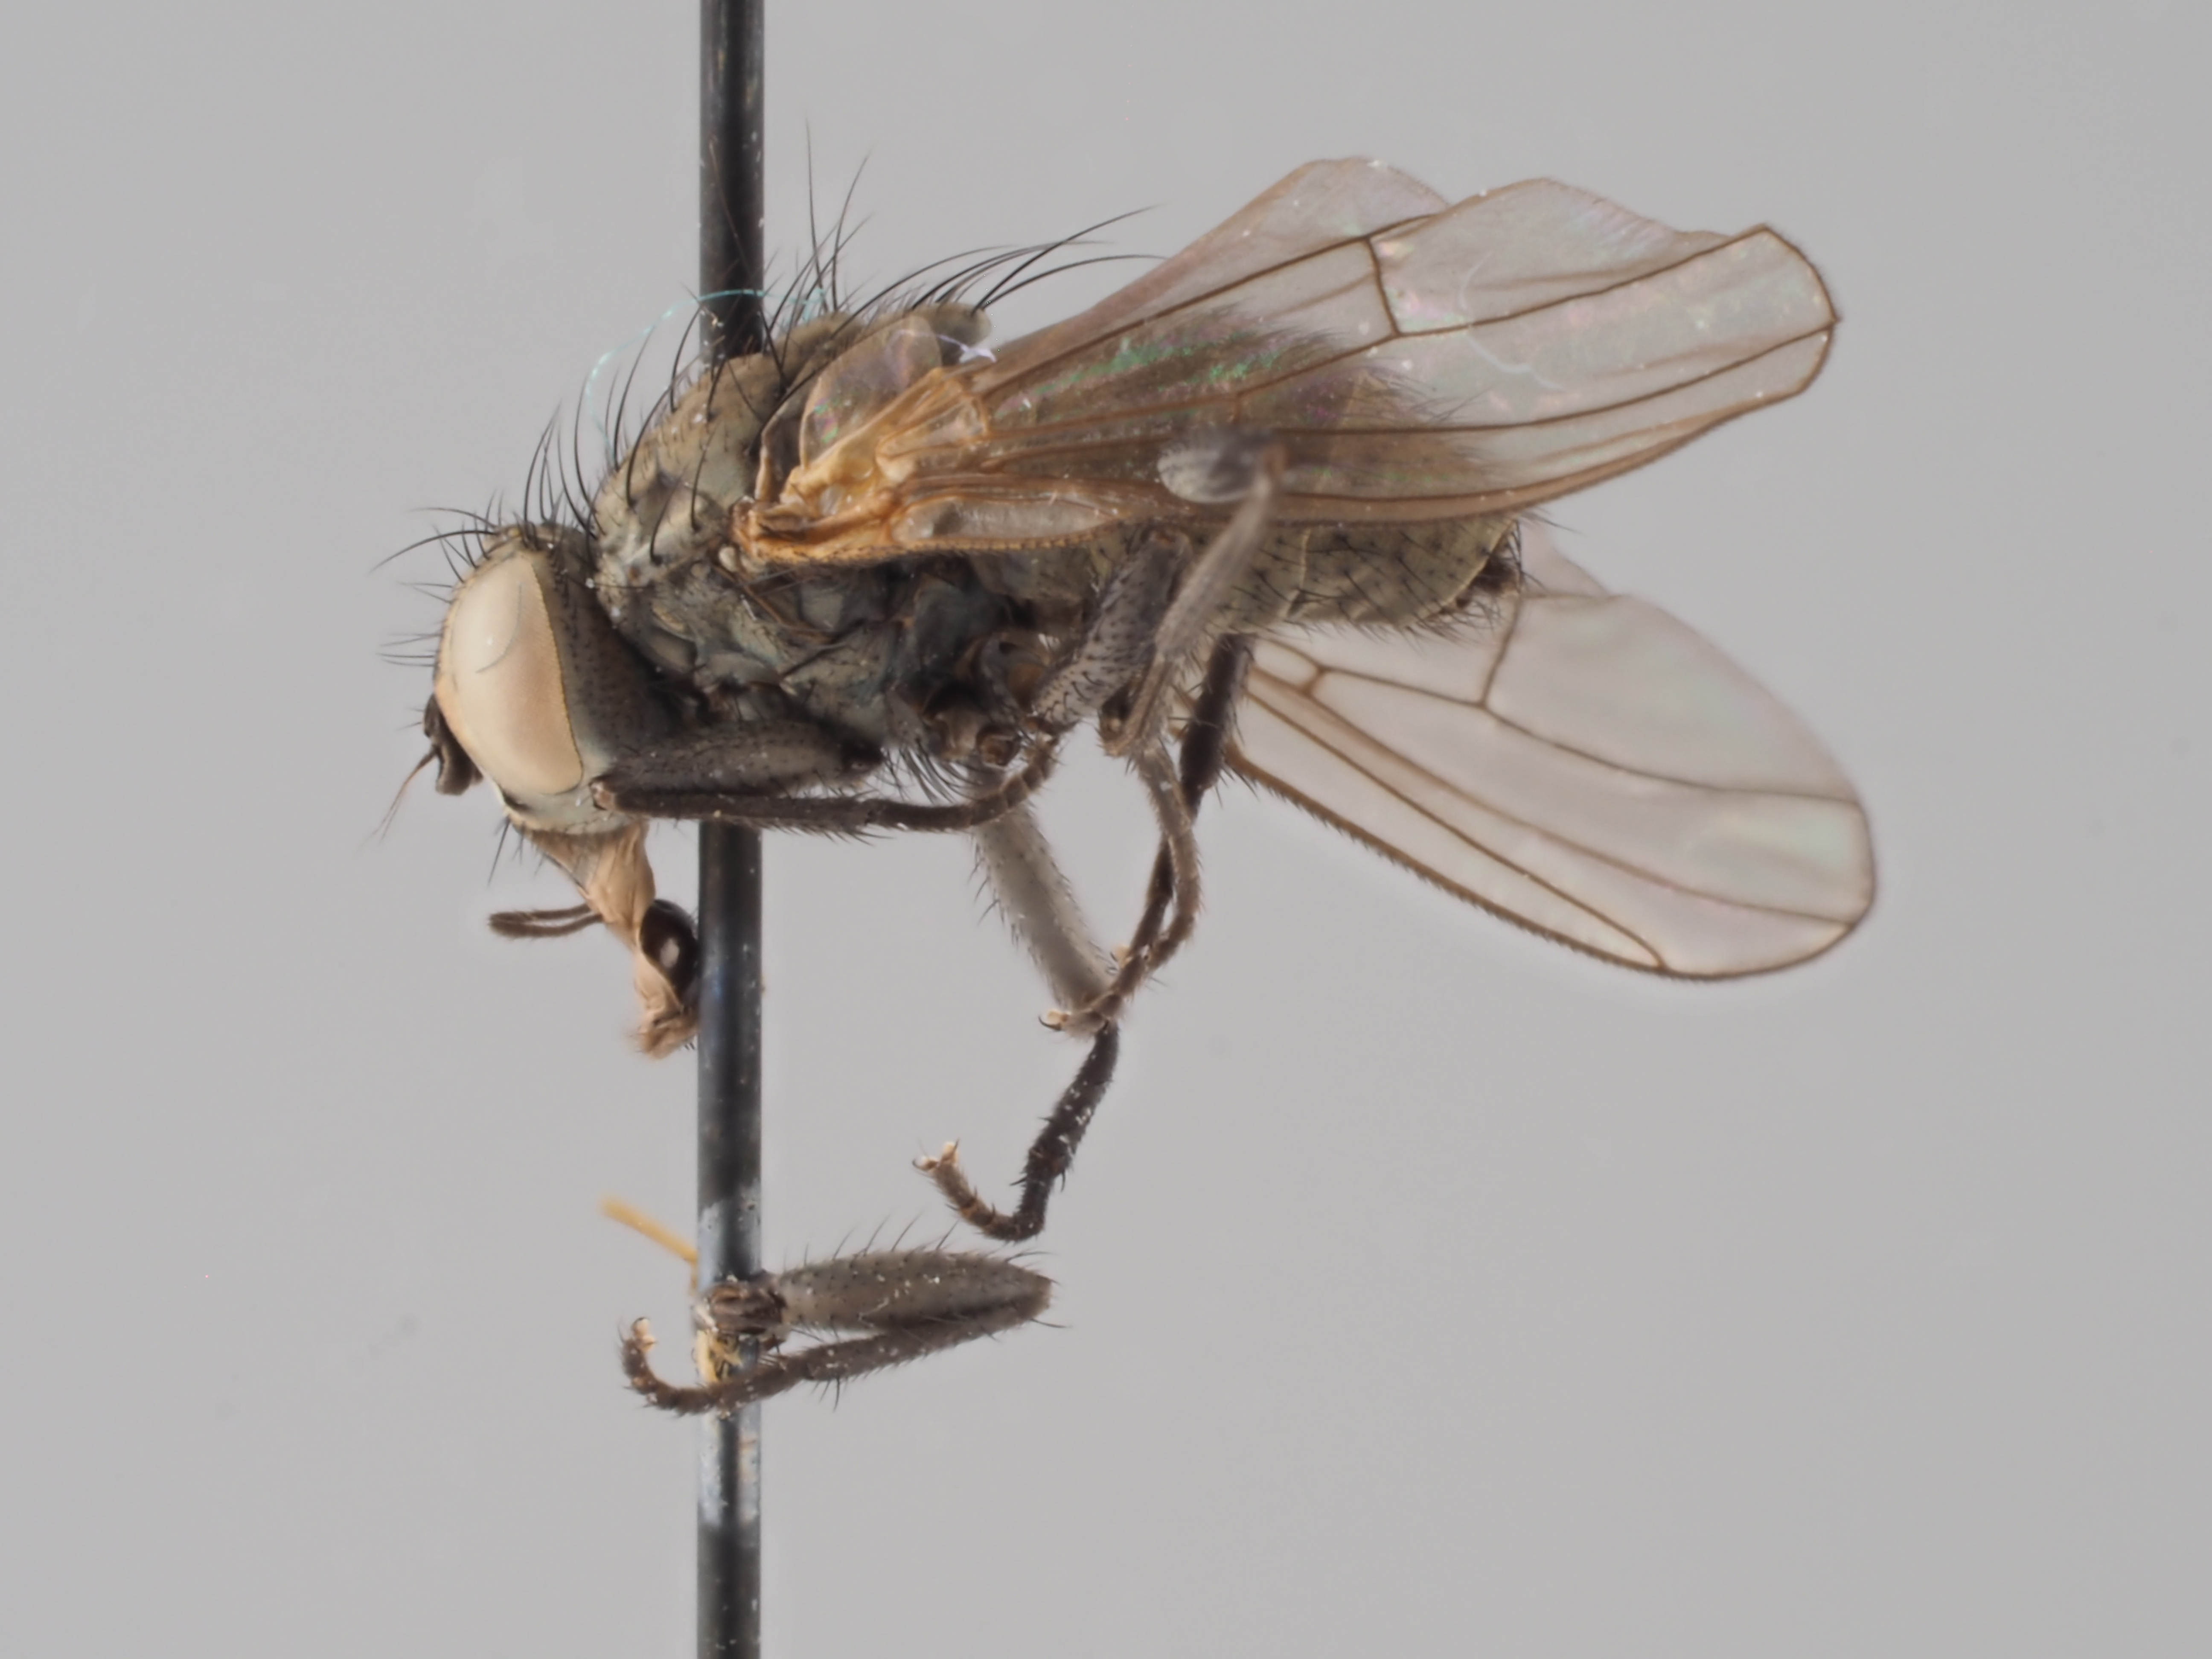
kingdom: Animalia
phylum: Arthropoda
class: Insecta
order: Diptera
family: Muscidae
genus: Spilogona
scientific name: Spilogona nitidicauda
